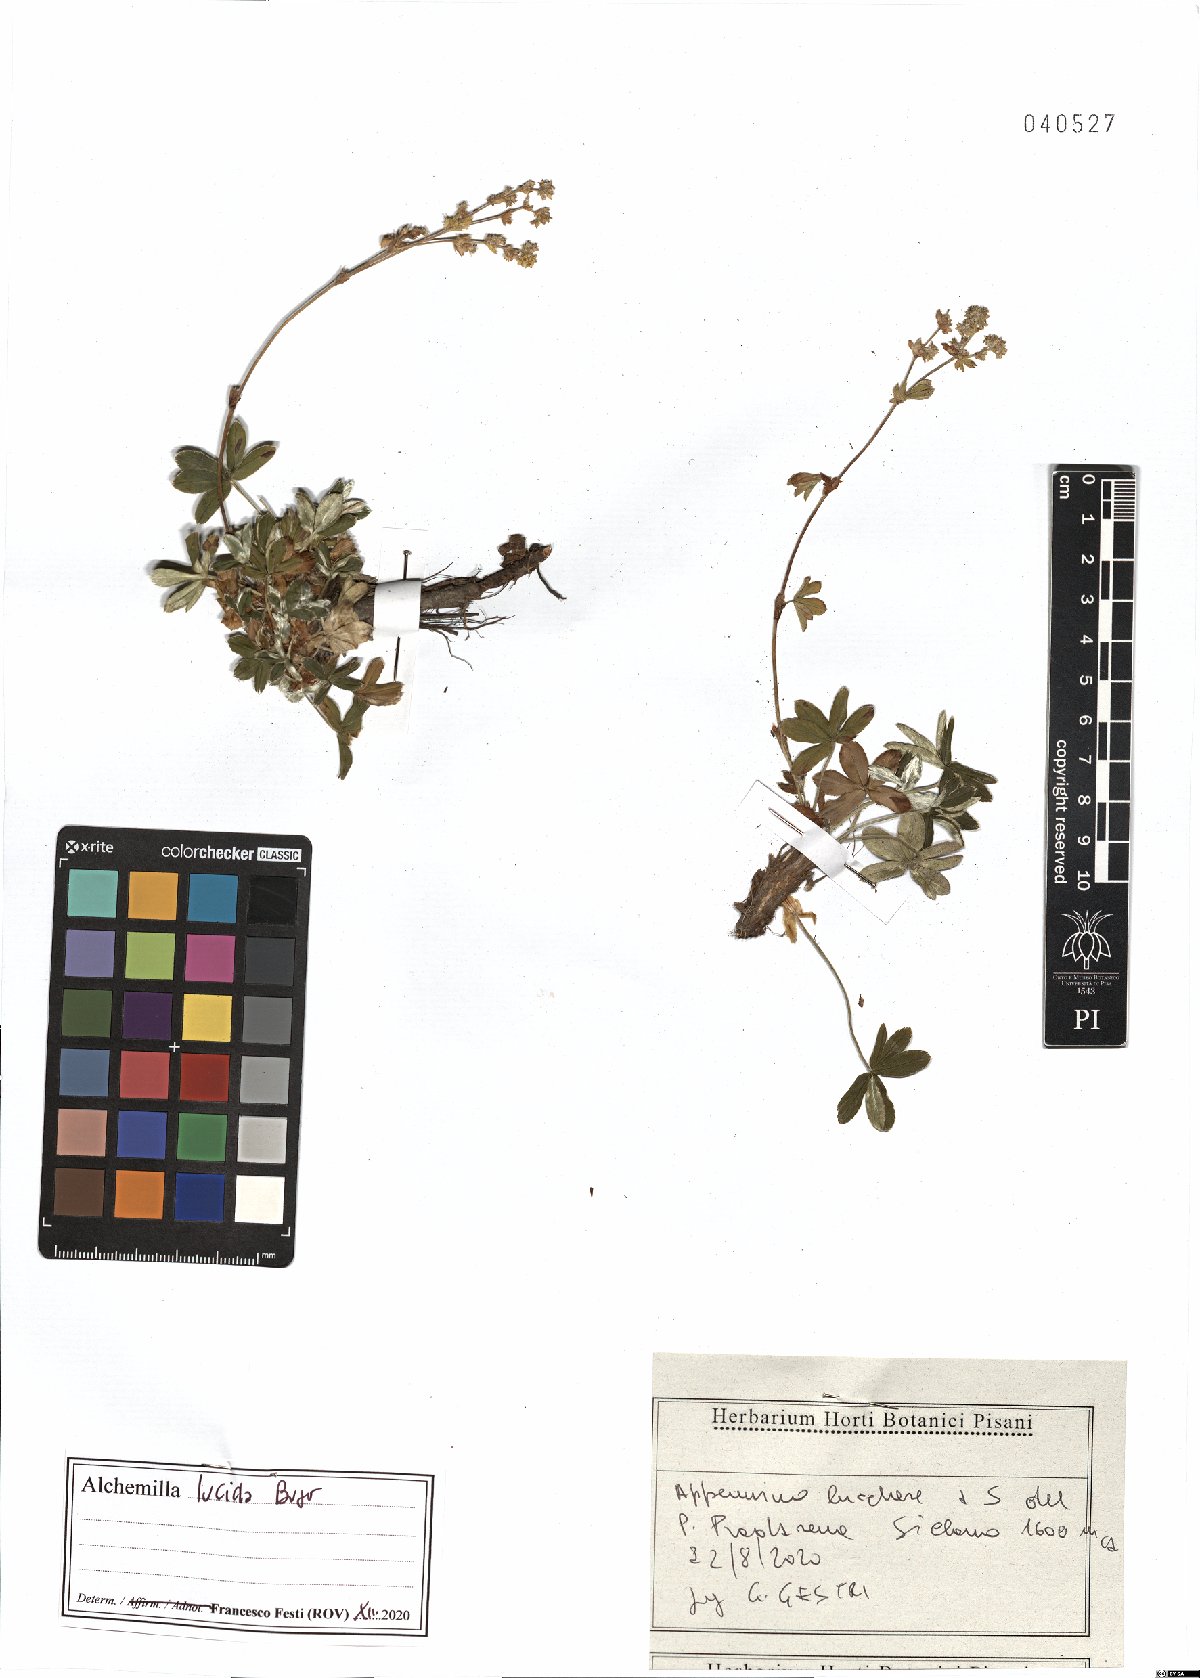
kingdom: Plantae
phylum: Tracheophyta
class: Magnoliopsida
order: Rosales
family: Rosaceae
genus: Alchemilla
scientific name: Alchemilla lucida
